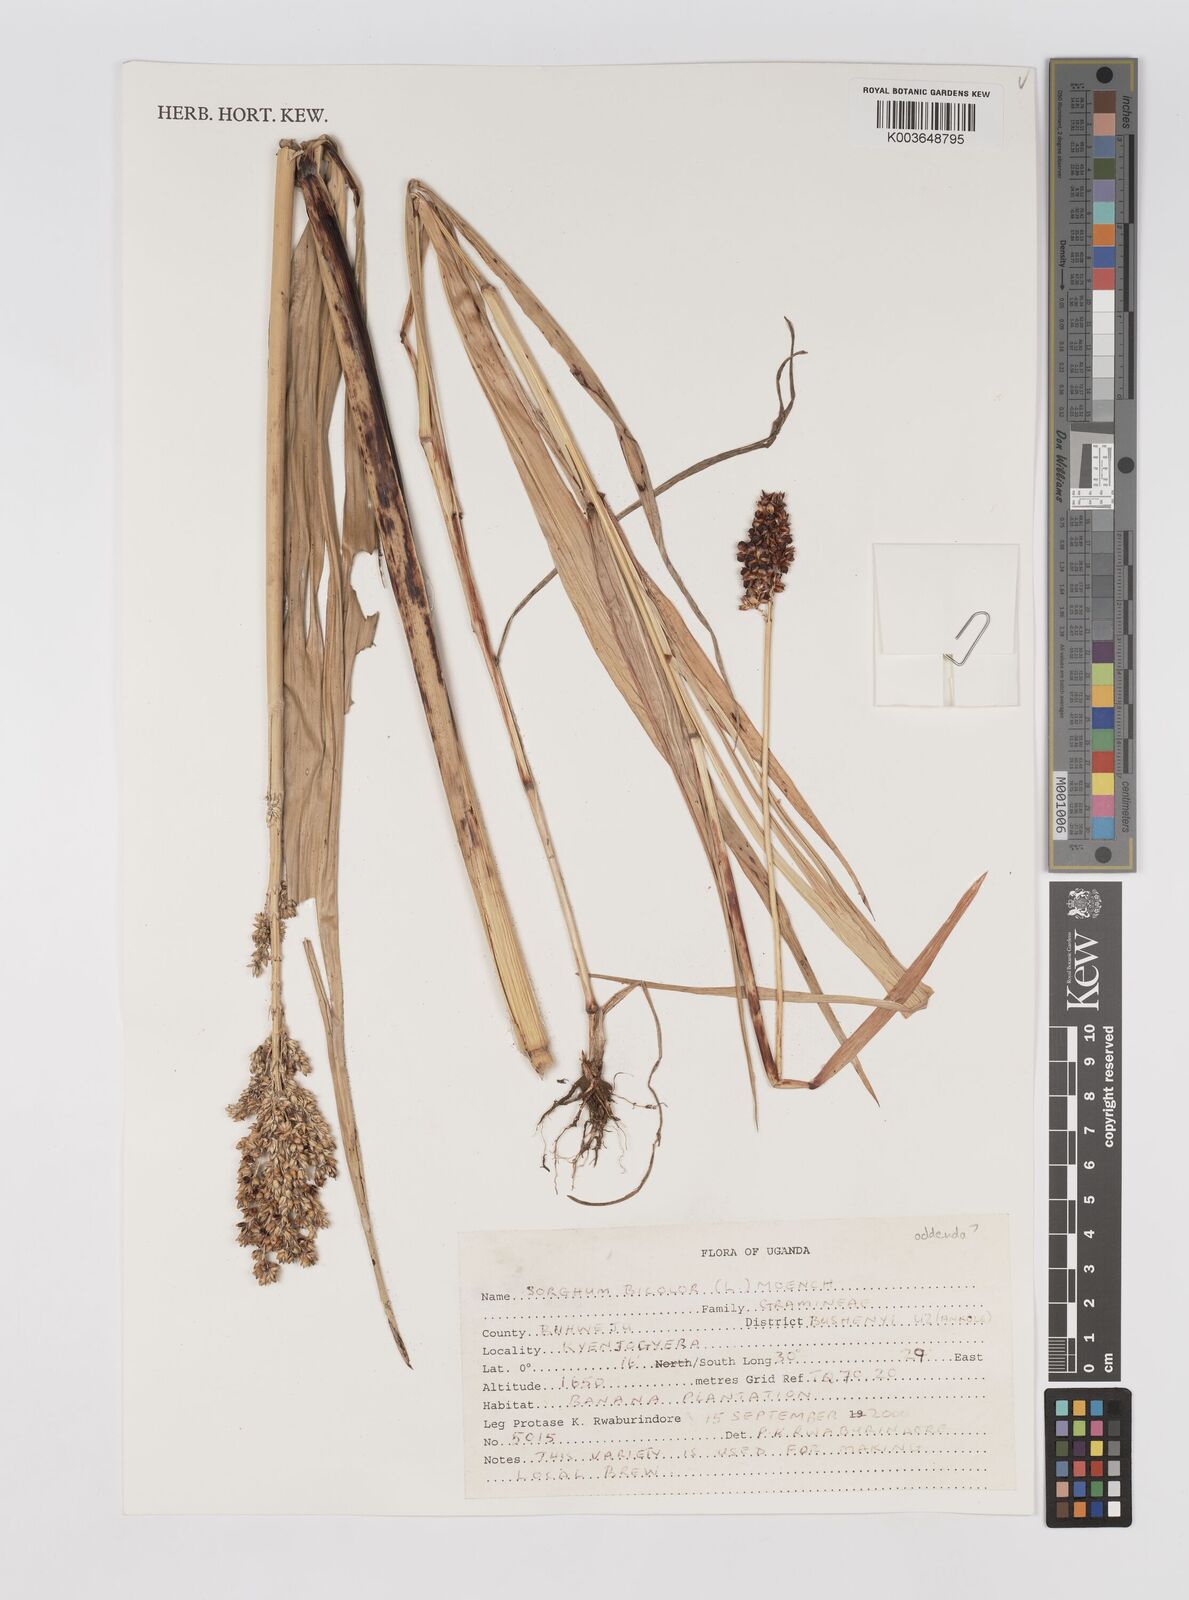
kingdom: Plantae
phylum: Tracheophyta
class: Liliopsida
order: Poales
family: Poaceae
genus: Sorghum
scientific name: Sorghum bicolor
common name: Sorghum
